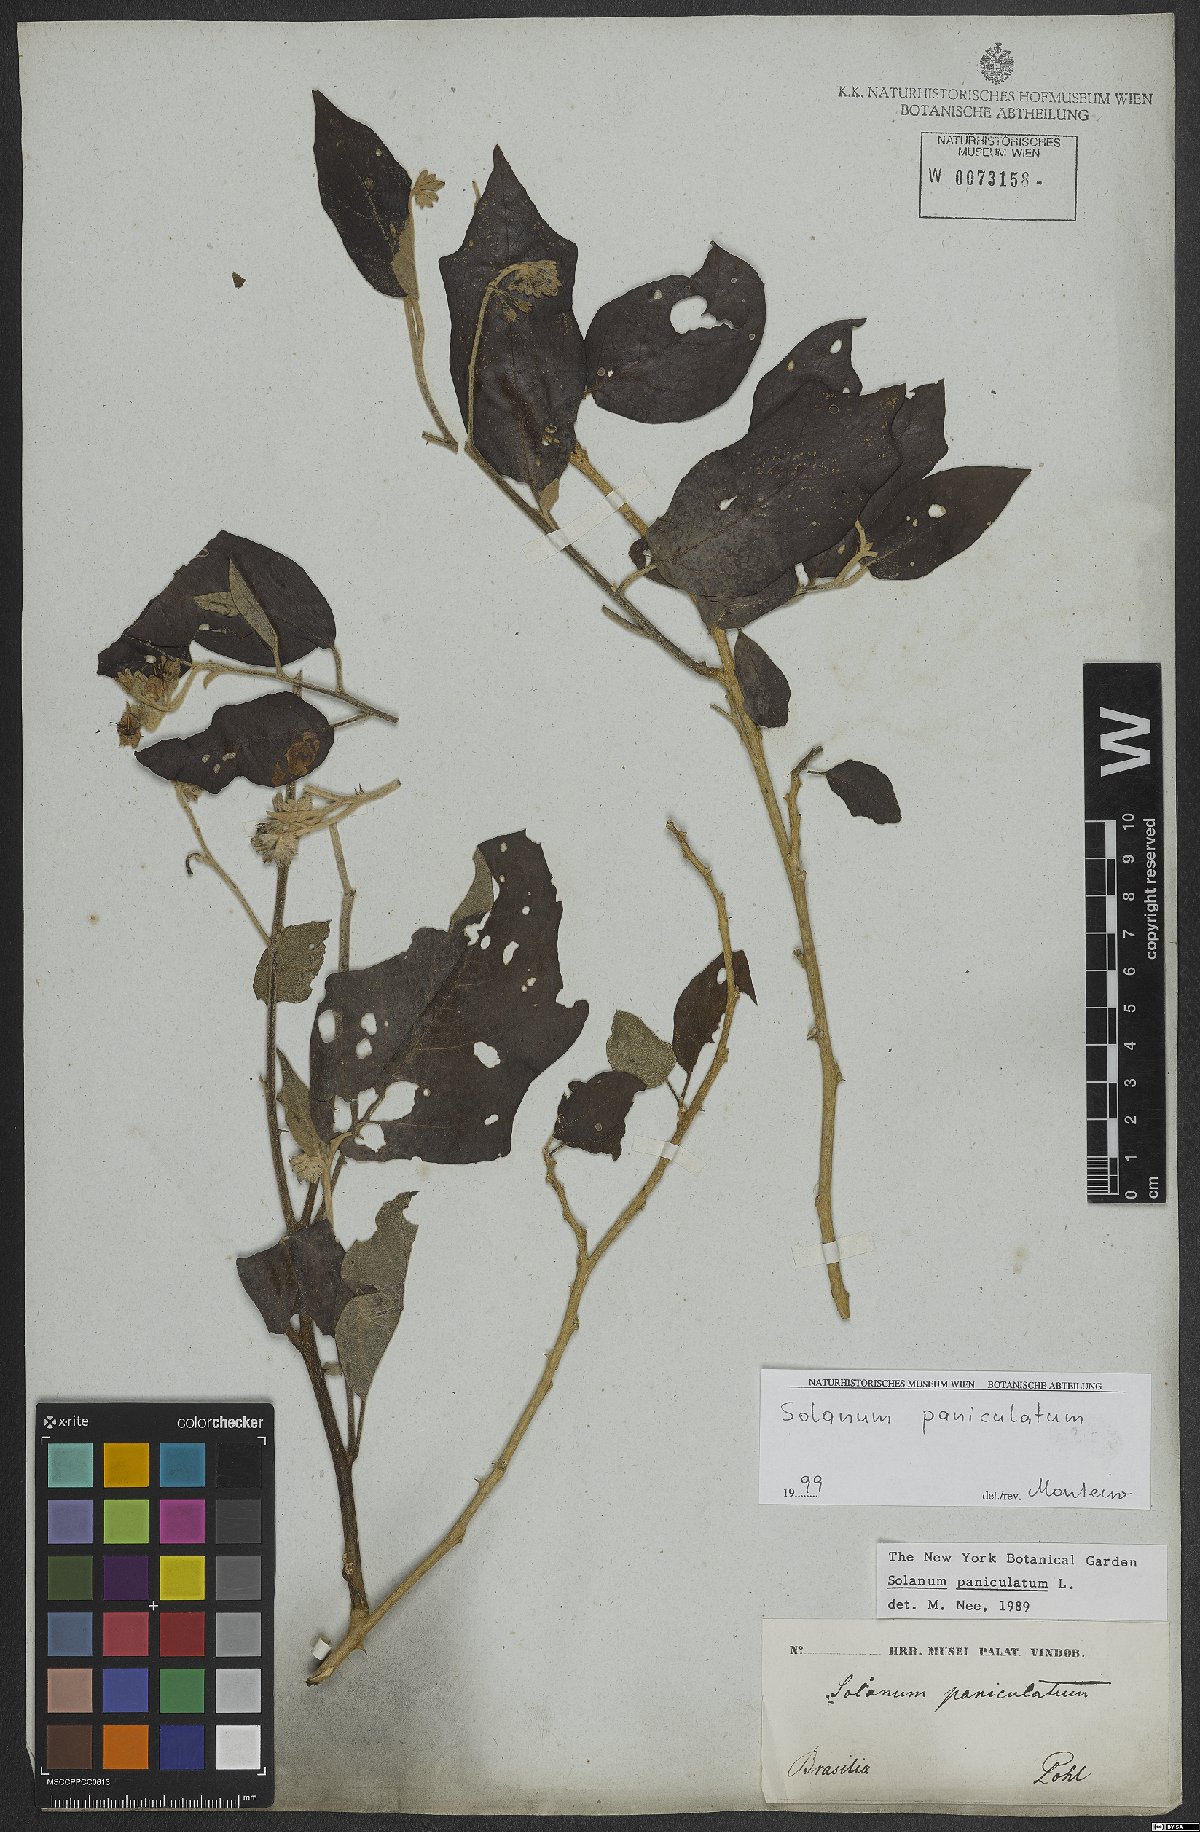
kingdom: Plantae
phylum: Tracheophyta
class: Magnoliopsida
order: Solanales
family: Solanaceae
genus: Solanum
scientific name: Solanum paniculatum
